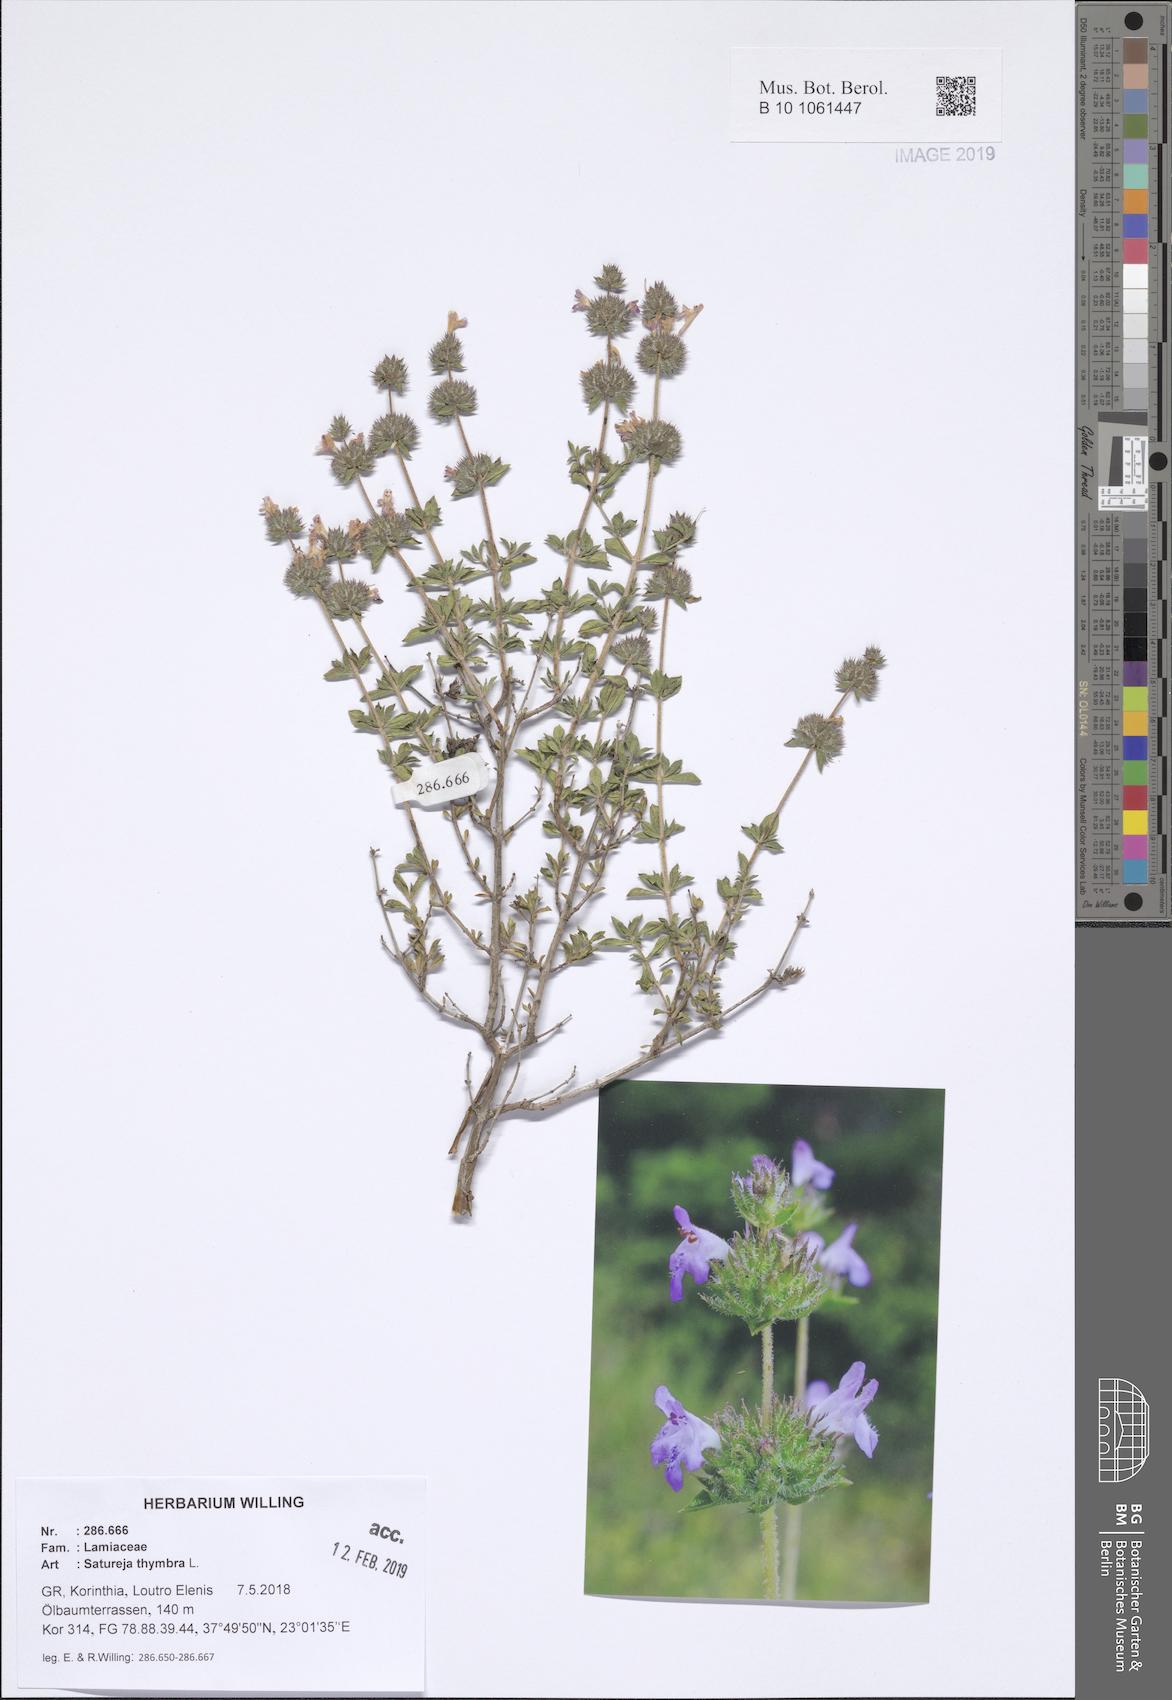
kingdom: Plantae
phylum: Tracheophyta
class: Magnoliopsida
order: Lamiales
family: Lamiaceae
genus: Satureja
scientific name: Satureja thymbra
